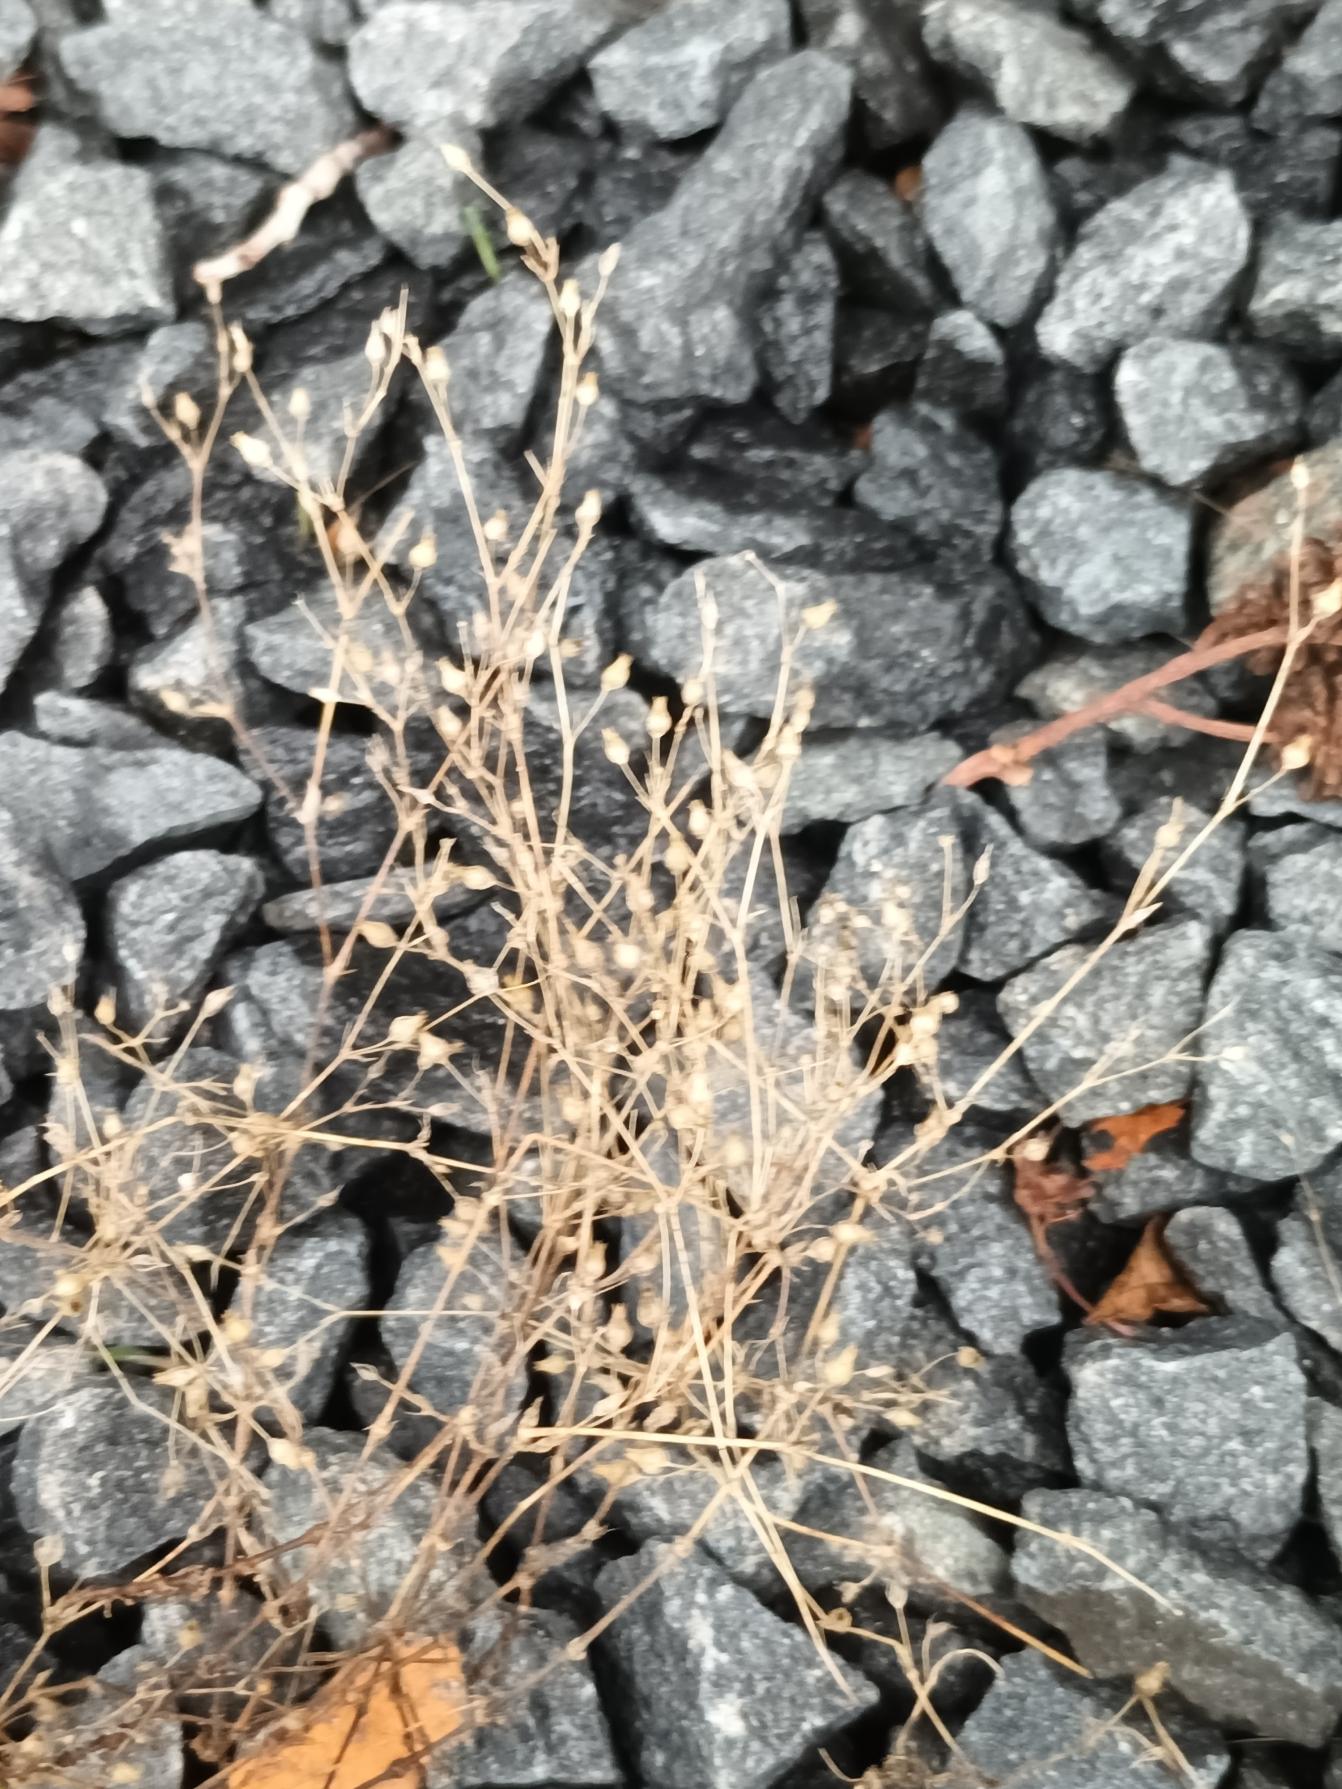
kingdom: Plantae
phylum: Tracheophyta
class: Magnoliopsida
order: Caryophyllales
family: Caryophyllaceae
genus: Arenaria
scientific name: Arenaria serpyllifolia
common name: Almindelig markarve
